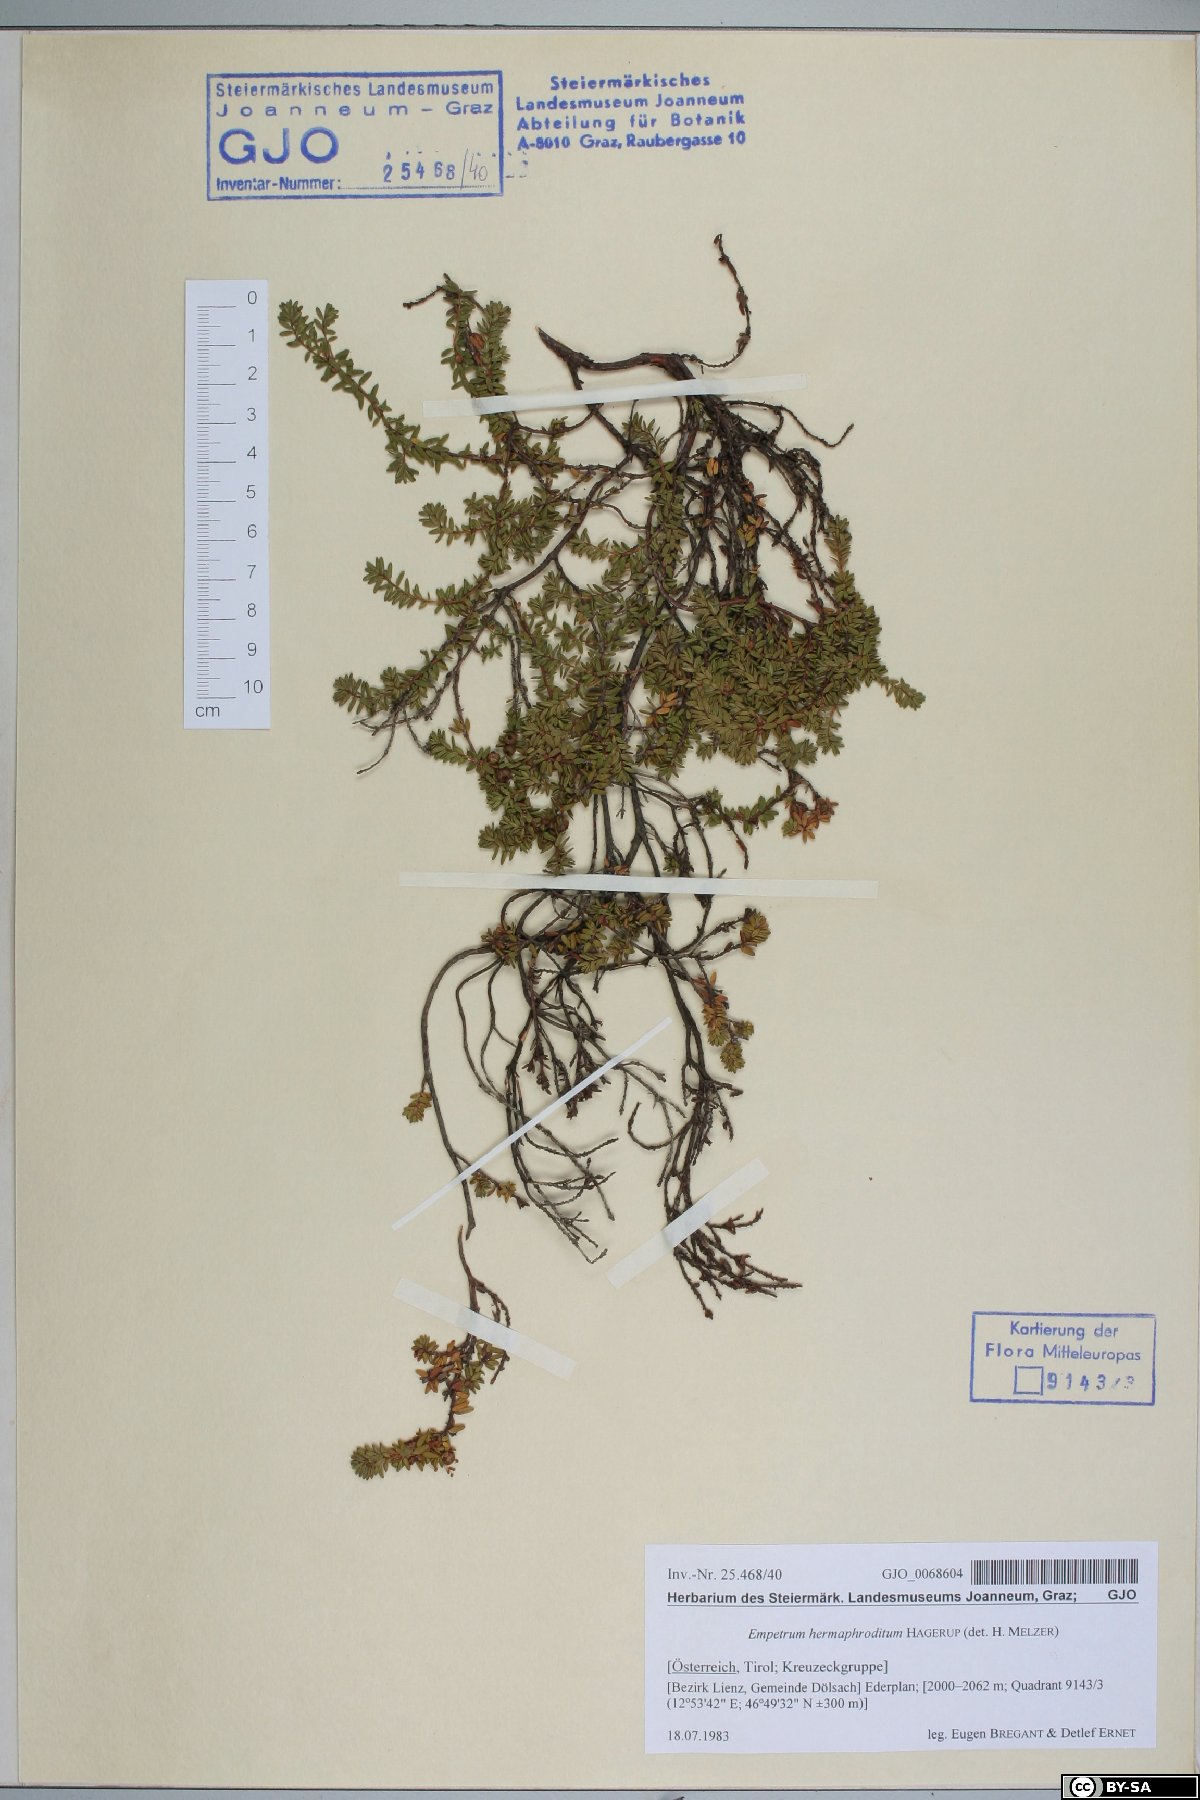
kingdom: Plantae
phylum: Tracheophyta
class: Magnoliopsida
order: Ericales
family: Ericaceae
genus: Empetrum
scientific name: Empetrum hermaphroditum
